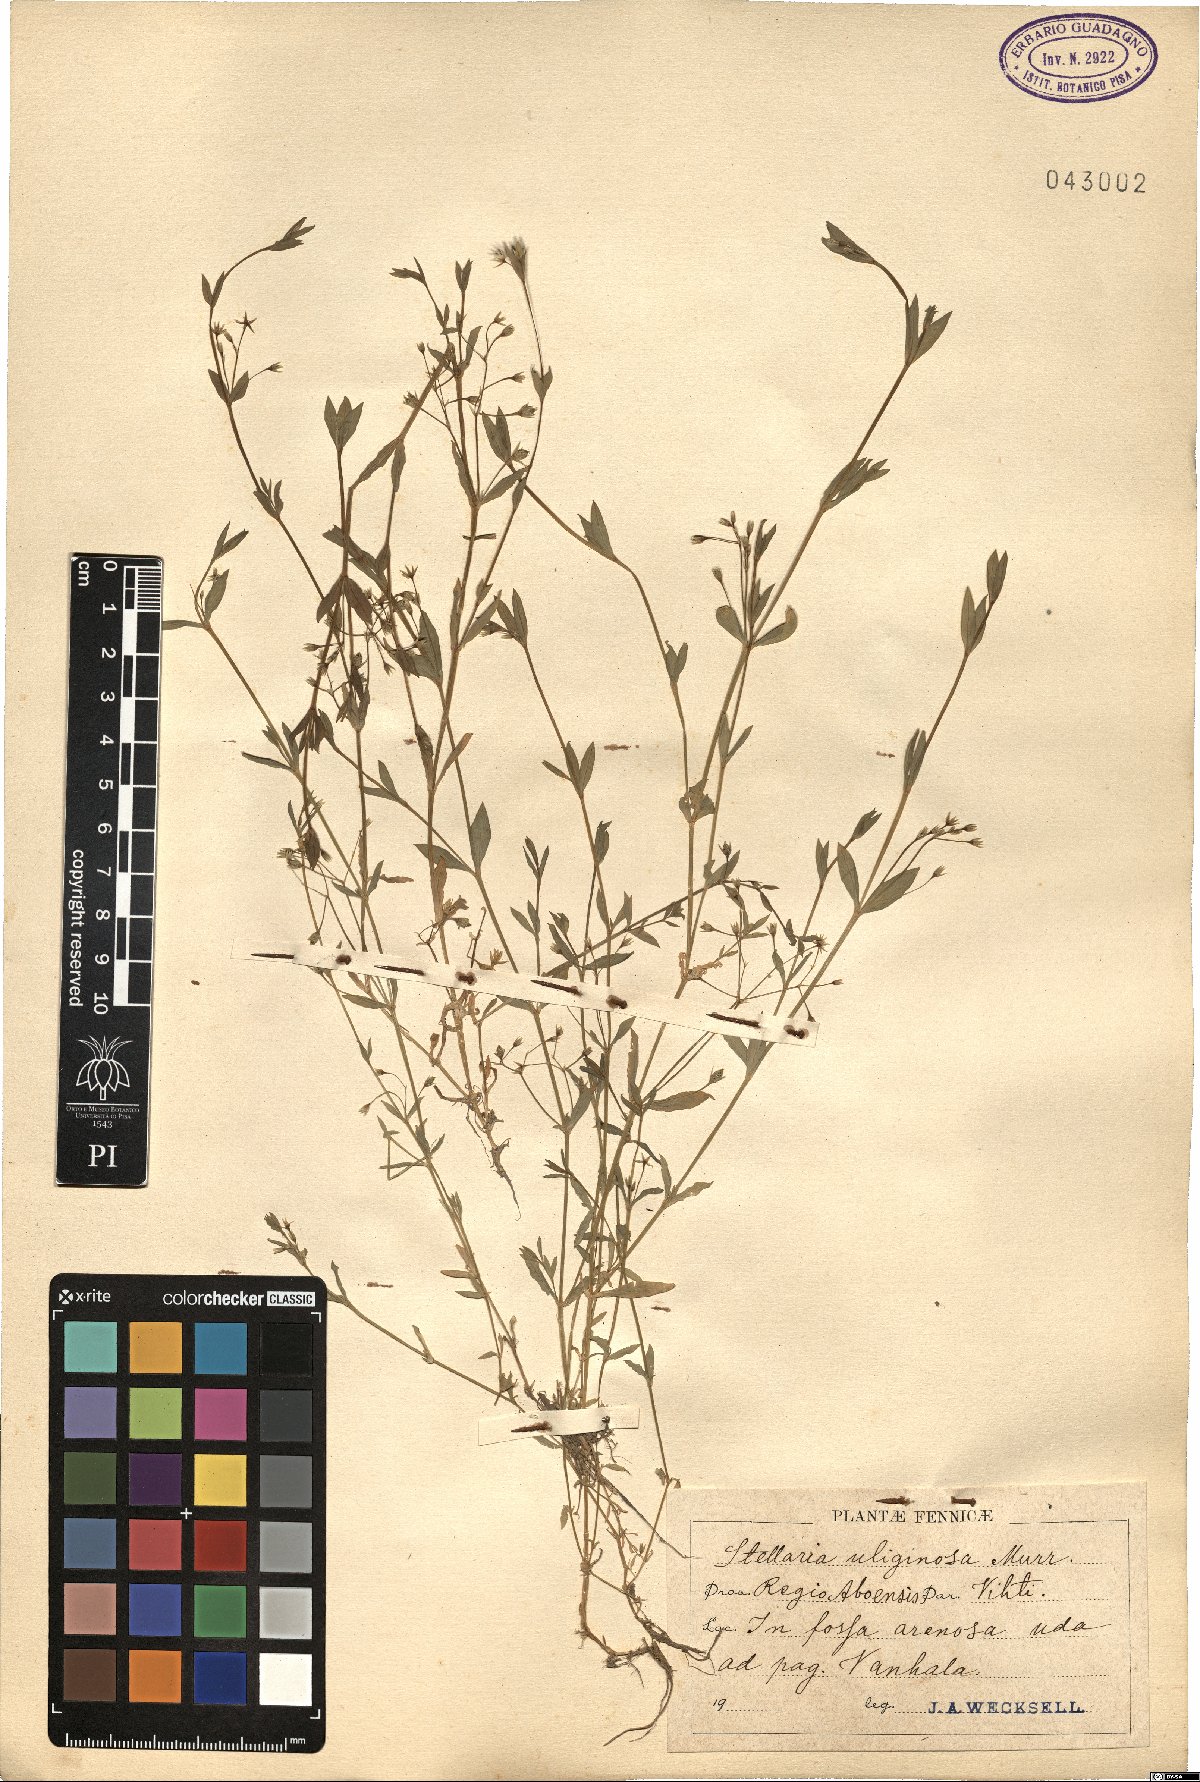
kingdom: Plantae
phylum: Tracheophyta
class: Magnoliopsida
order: Caryophyllales
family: Caryophyllaceae
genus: Stellaria
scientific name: Stellaria alsine
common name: Bog stitchwort
